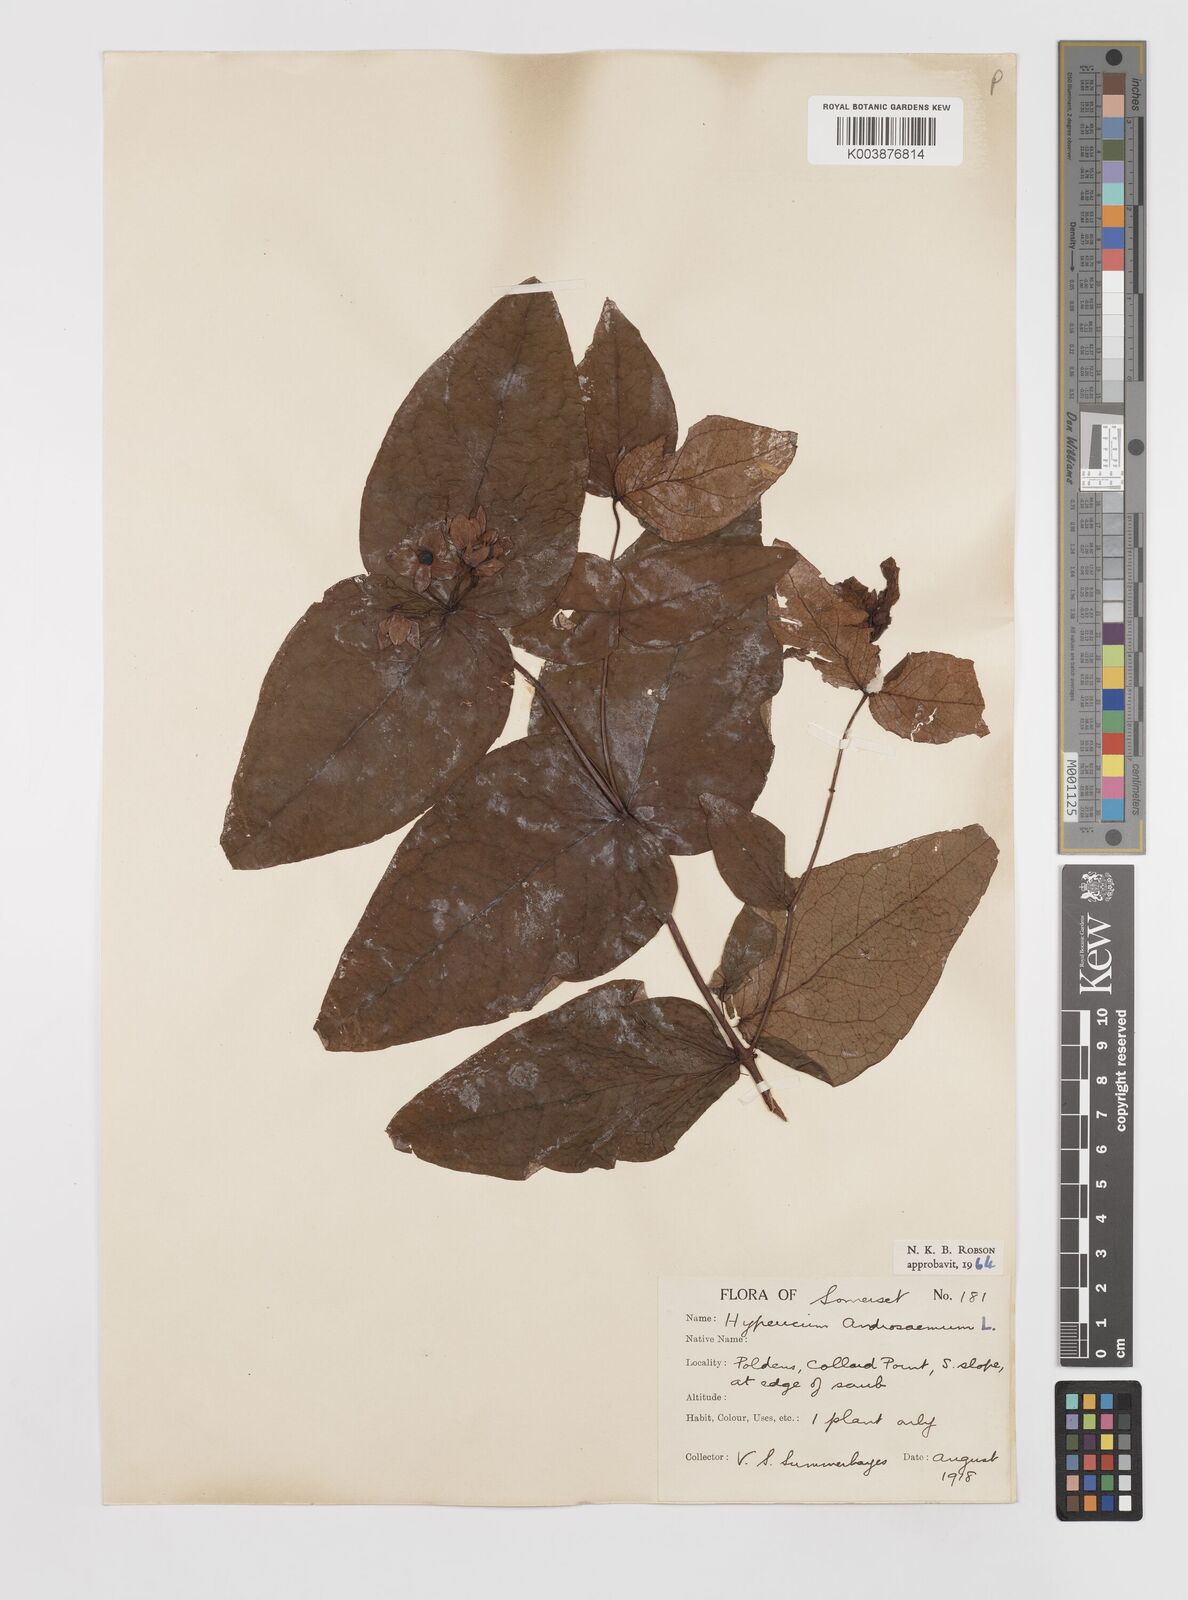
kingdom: Plantae
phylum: Tracheophyta
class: Magnoliopsida
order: Malpighiales
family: Hypericaceae
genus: Hypericum
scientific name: Hypericum androsaemum
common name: Sweet-amber
